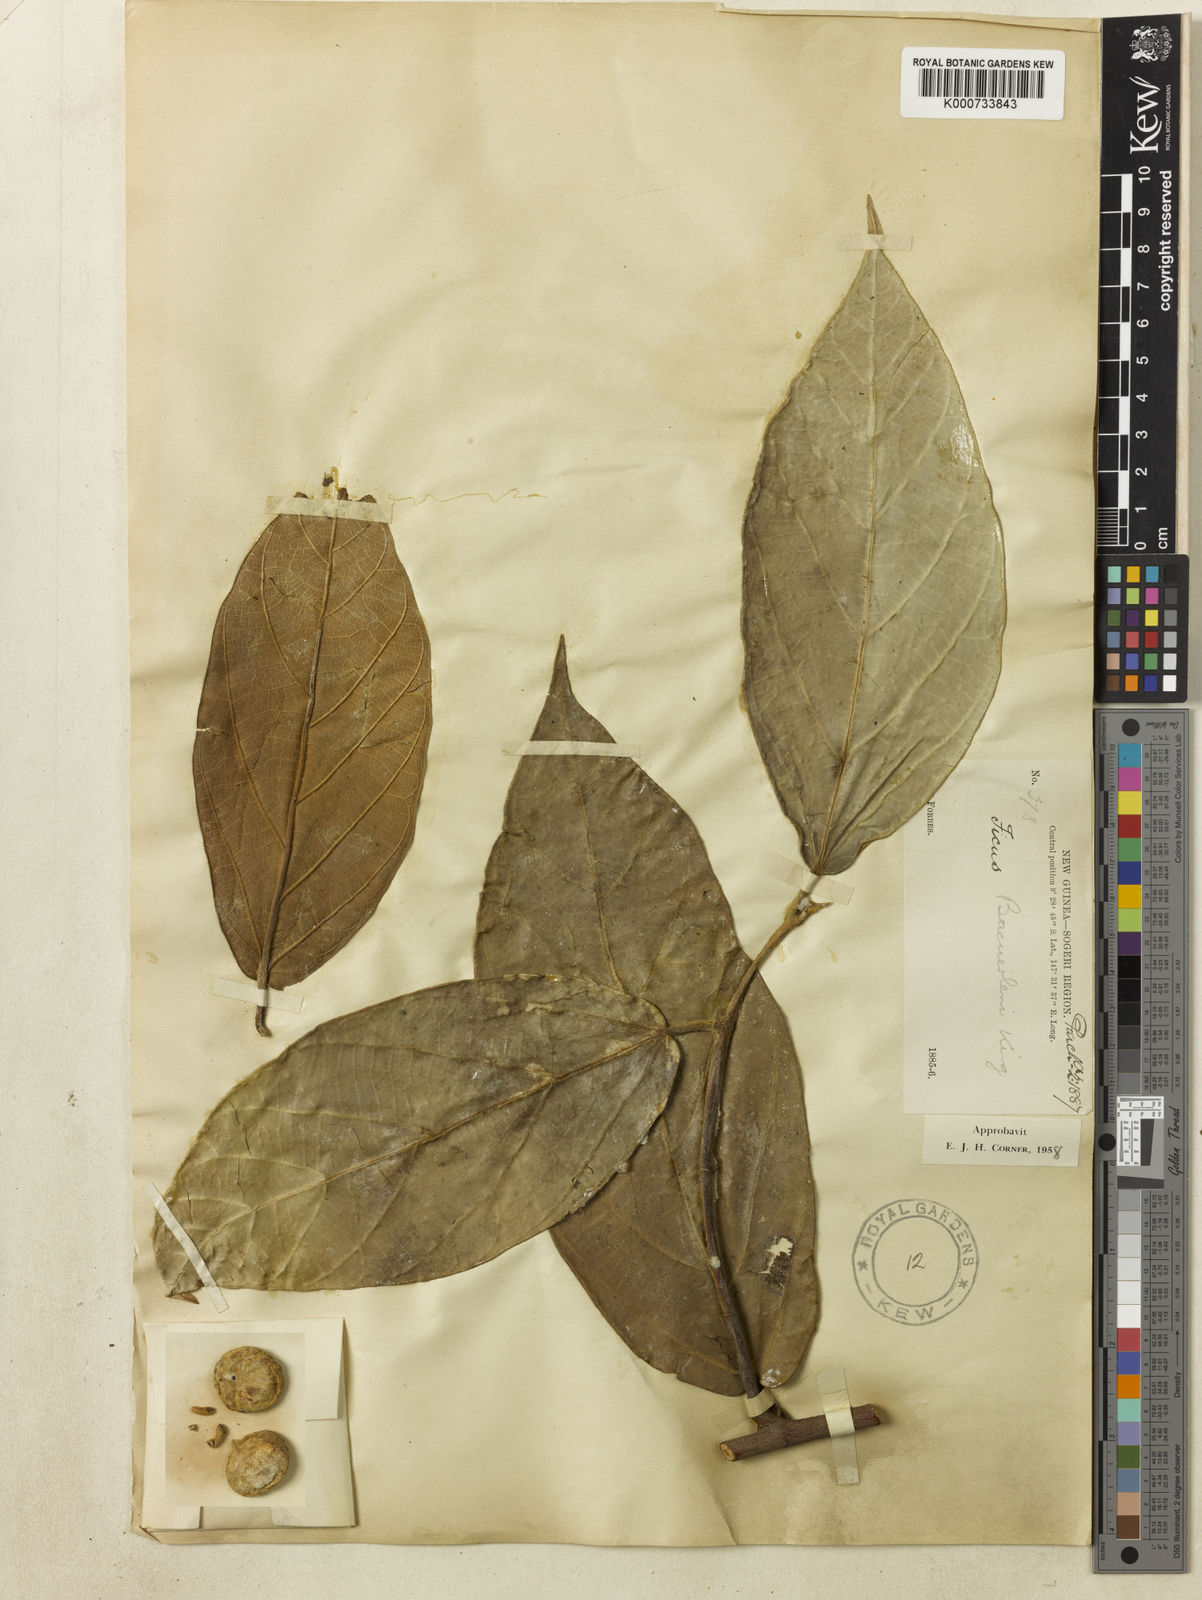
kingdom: Plantae
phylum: Tracheophyta
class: Magnoliopsida
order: Rosales
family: Moraceae
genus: Ficus
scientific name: Ficus baeuerlenii
